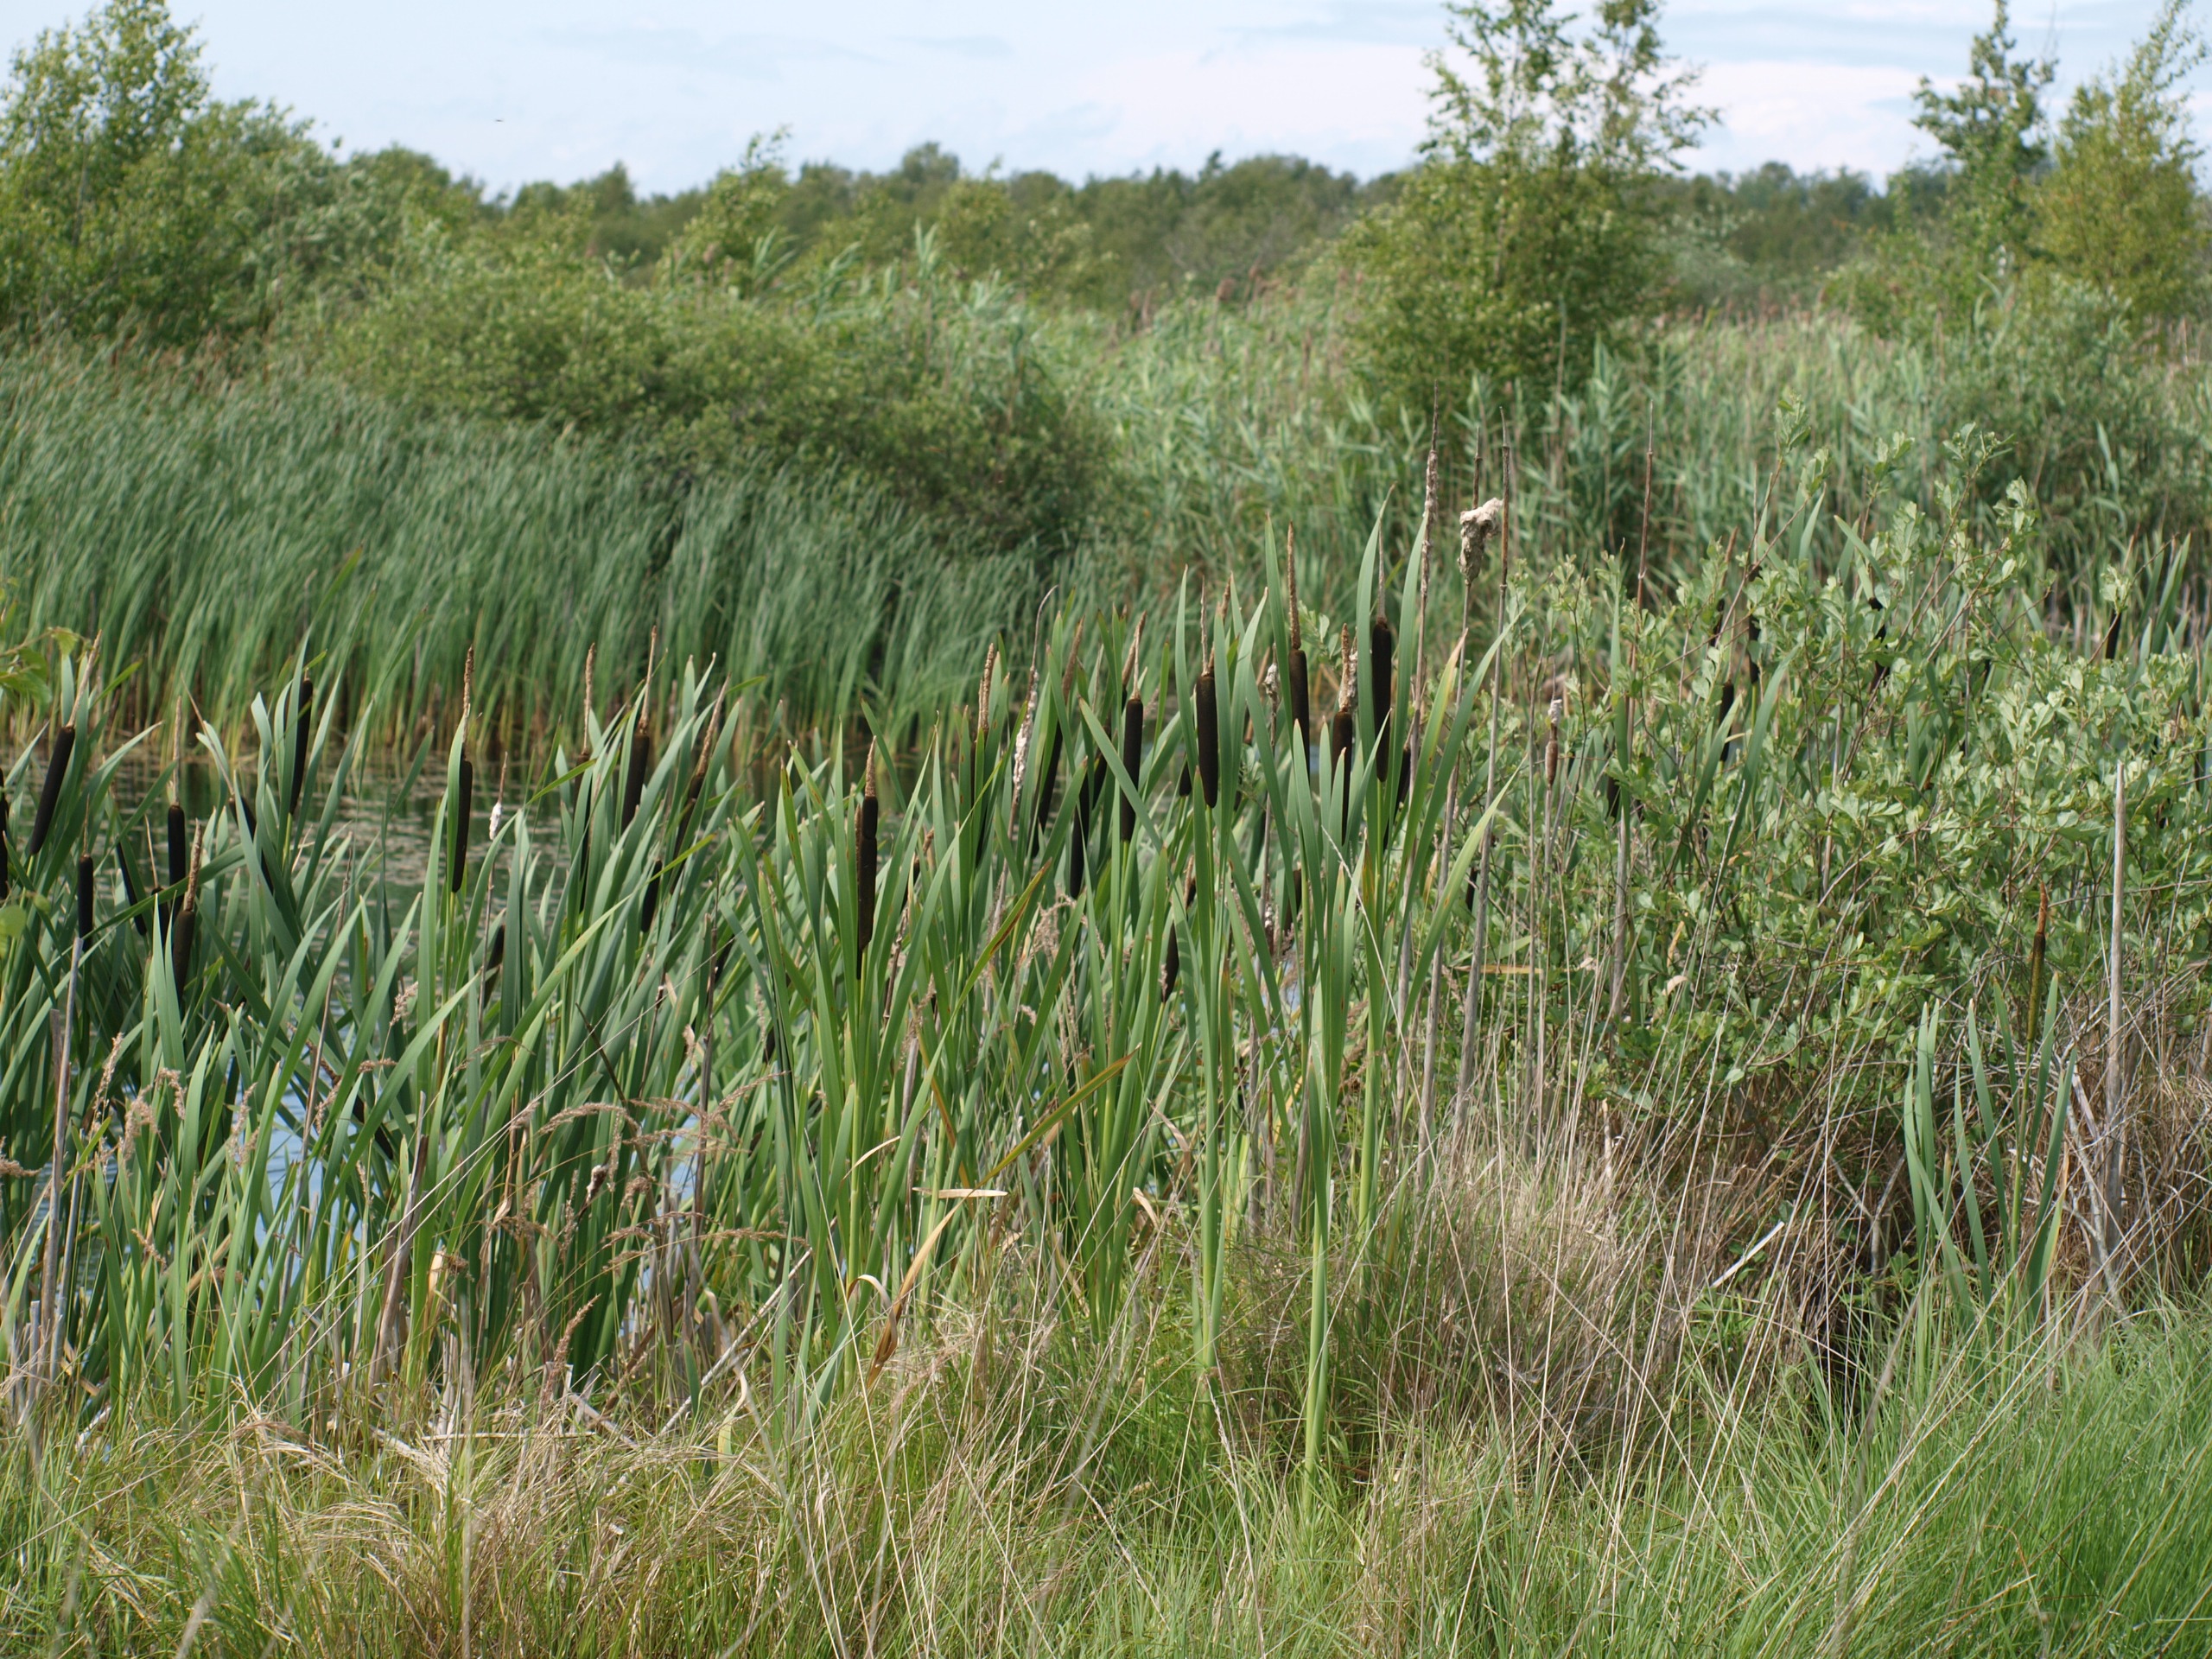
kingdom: Plantae
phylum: Tracheophyta
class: Liliopsida
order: Poales
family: Typhaceae
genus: Typha
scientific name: Typha latifolia
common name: Bredbladet dunhammer
